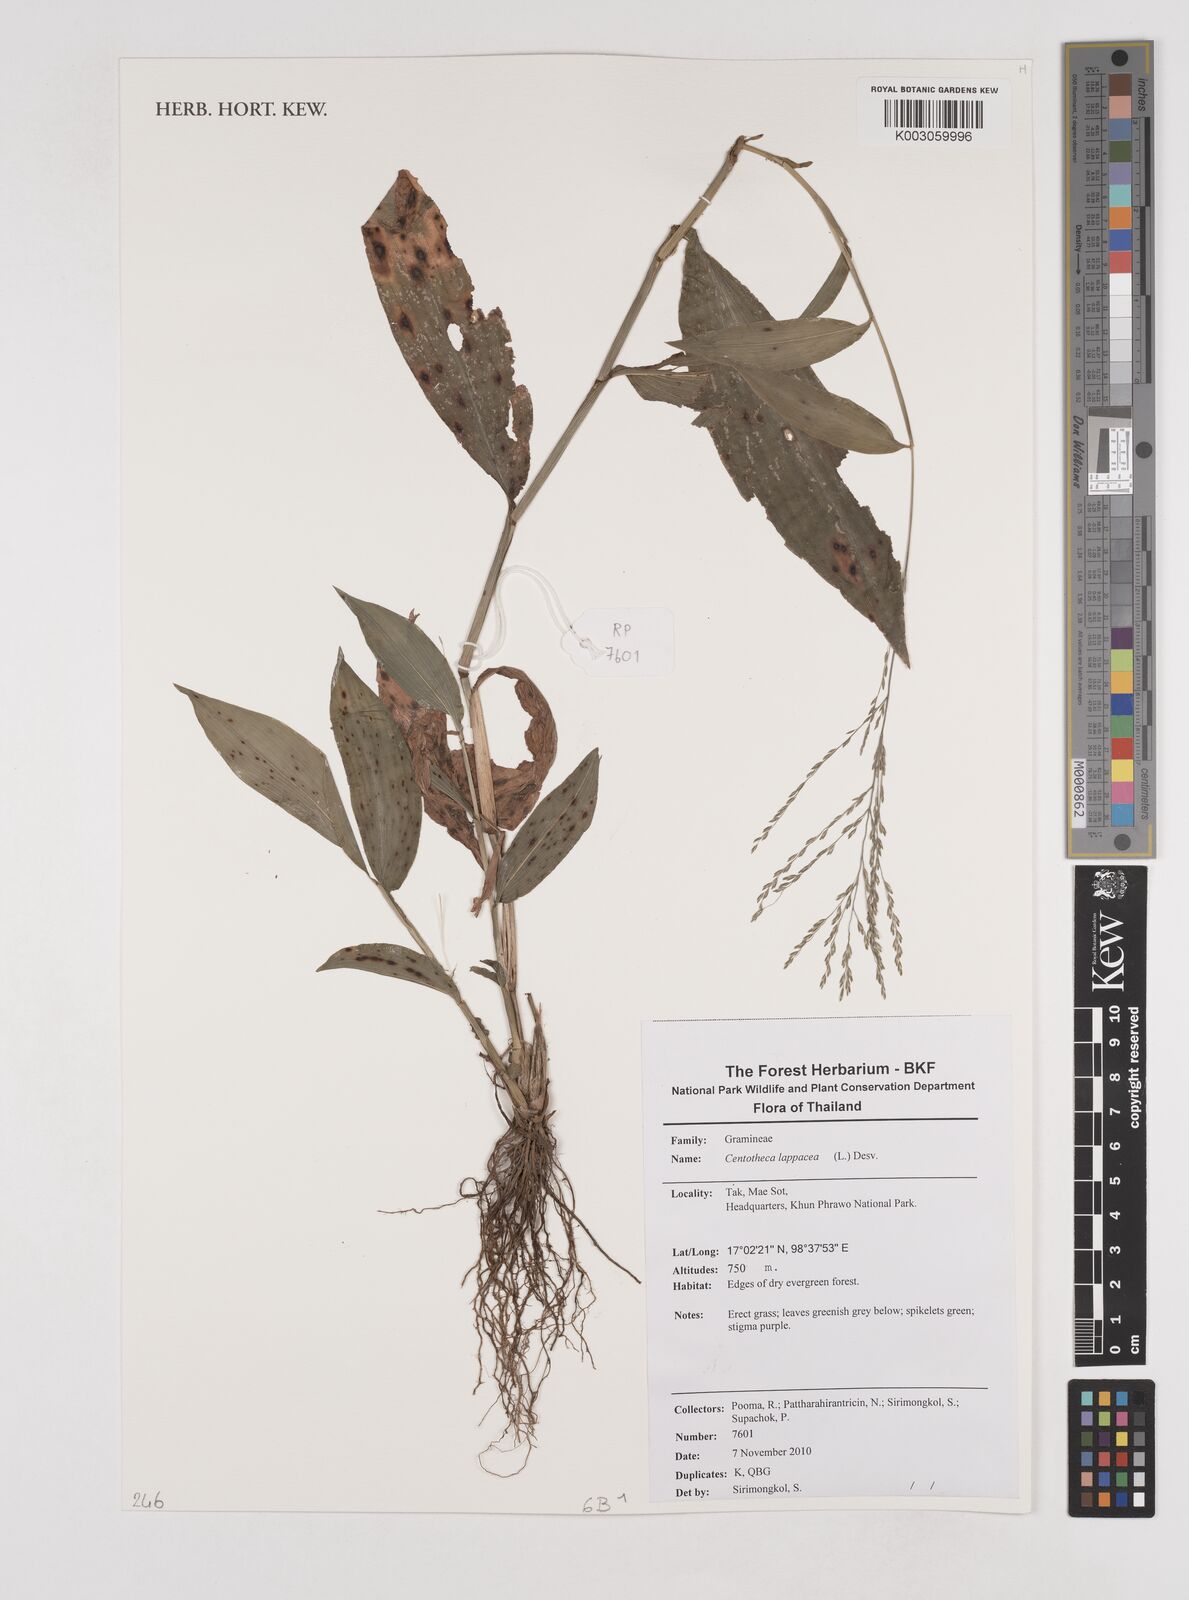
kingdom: Plantae
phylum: Tracheophyta
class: Liliopsida
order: Poales
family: Poaceae
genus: Centotheca
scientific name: Centotheca lappacea
